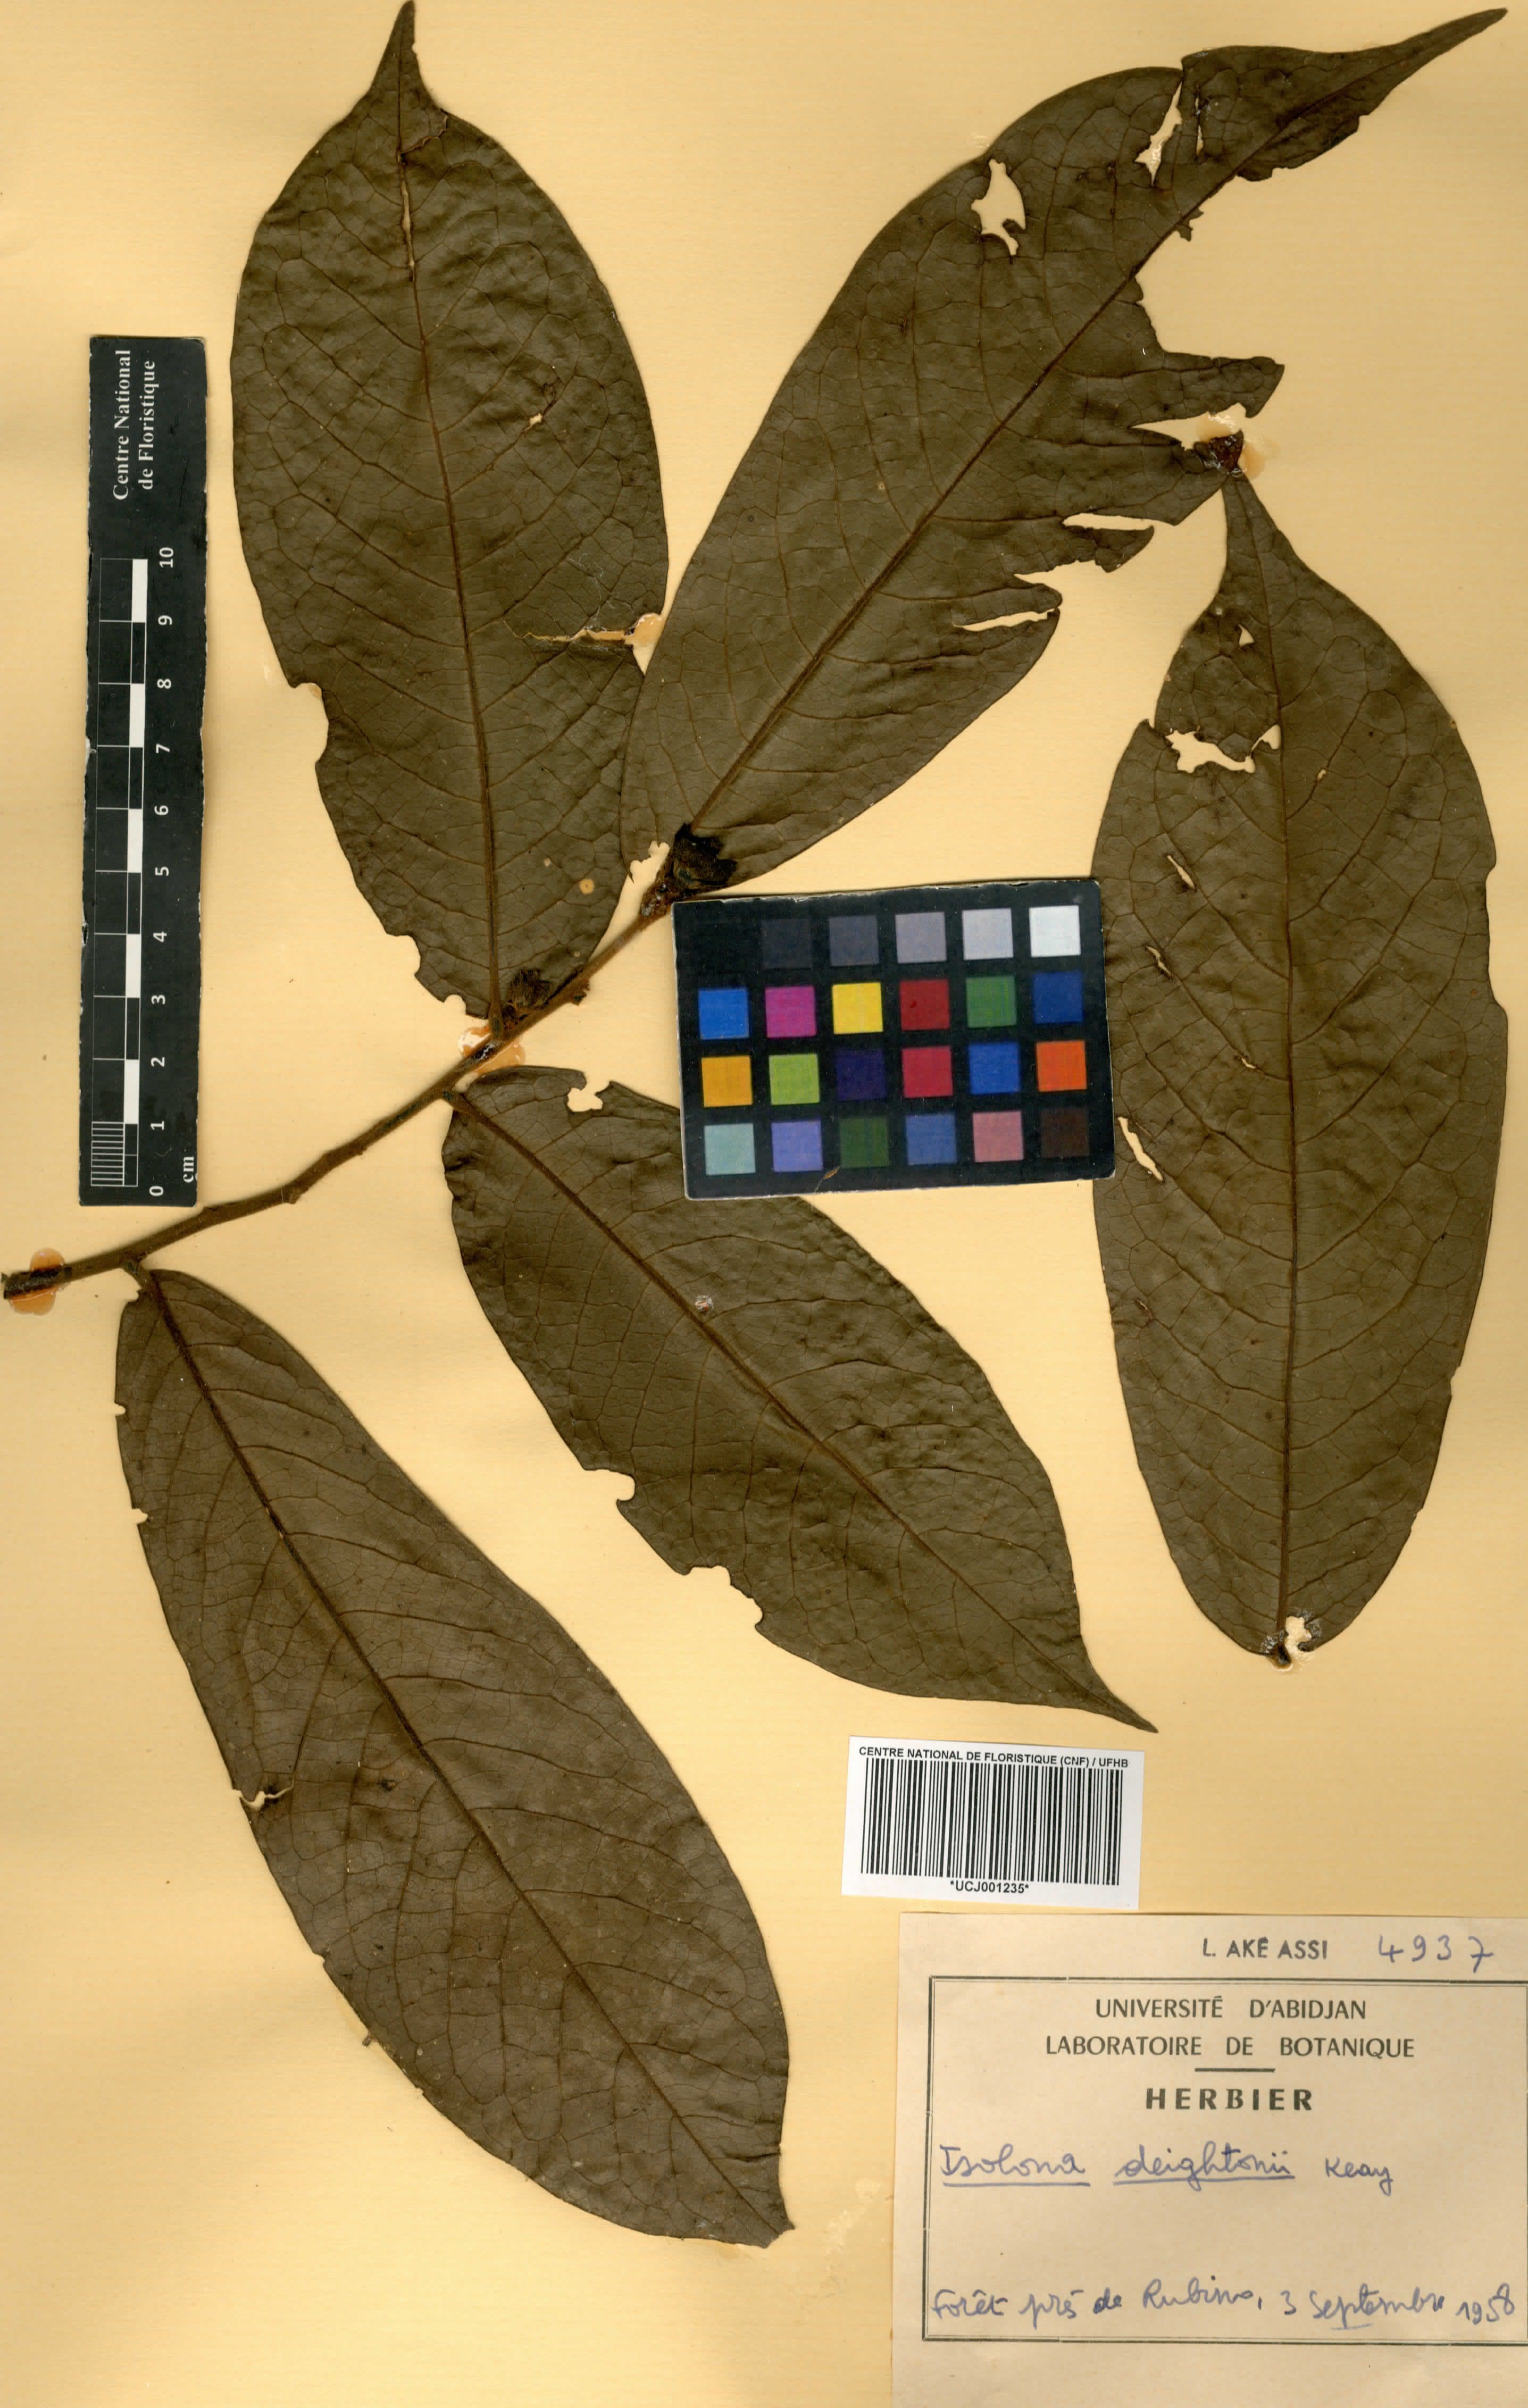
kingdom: Plantae
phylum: Tracheophyta
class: Magnoliopsida
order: Magnoliales
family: Annonaceae
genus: Isolona
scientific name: Isolona deightonii
